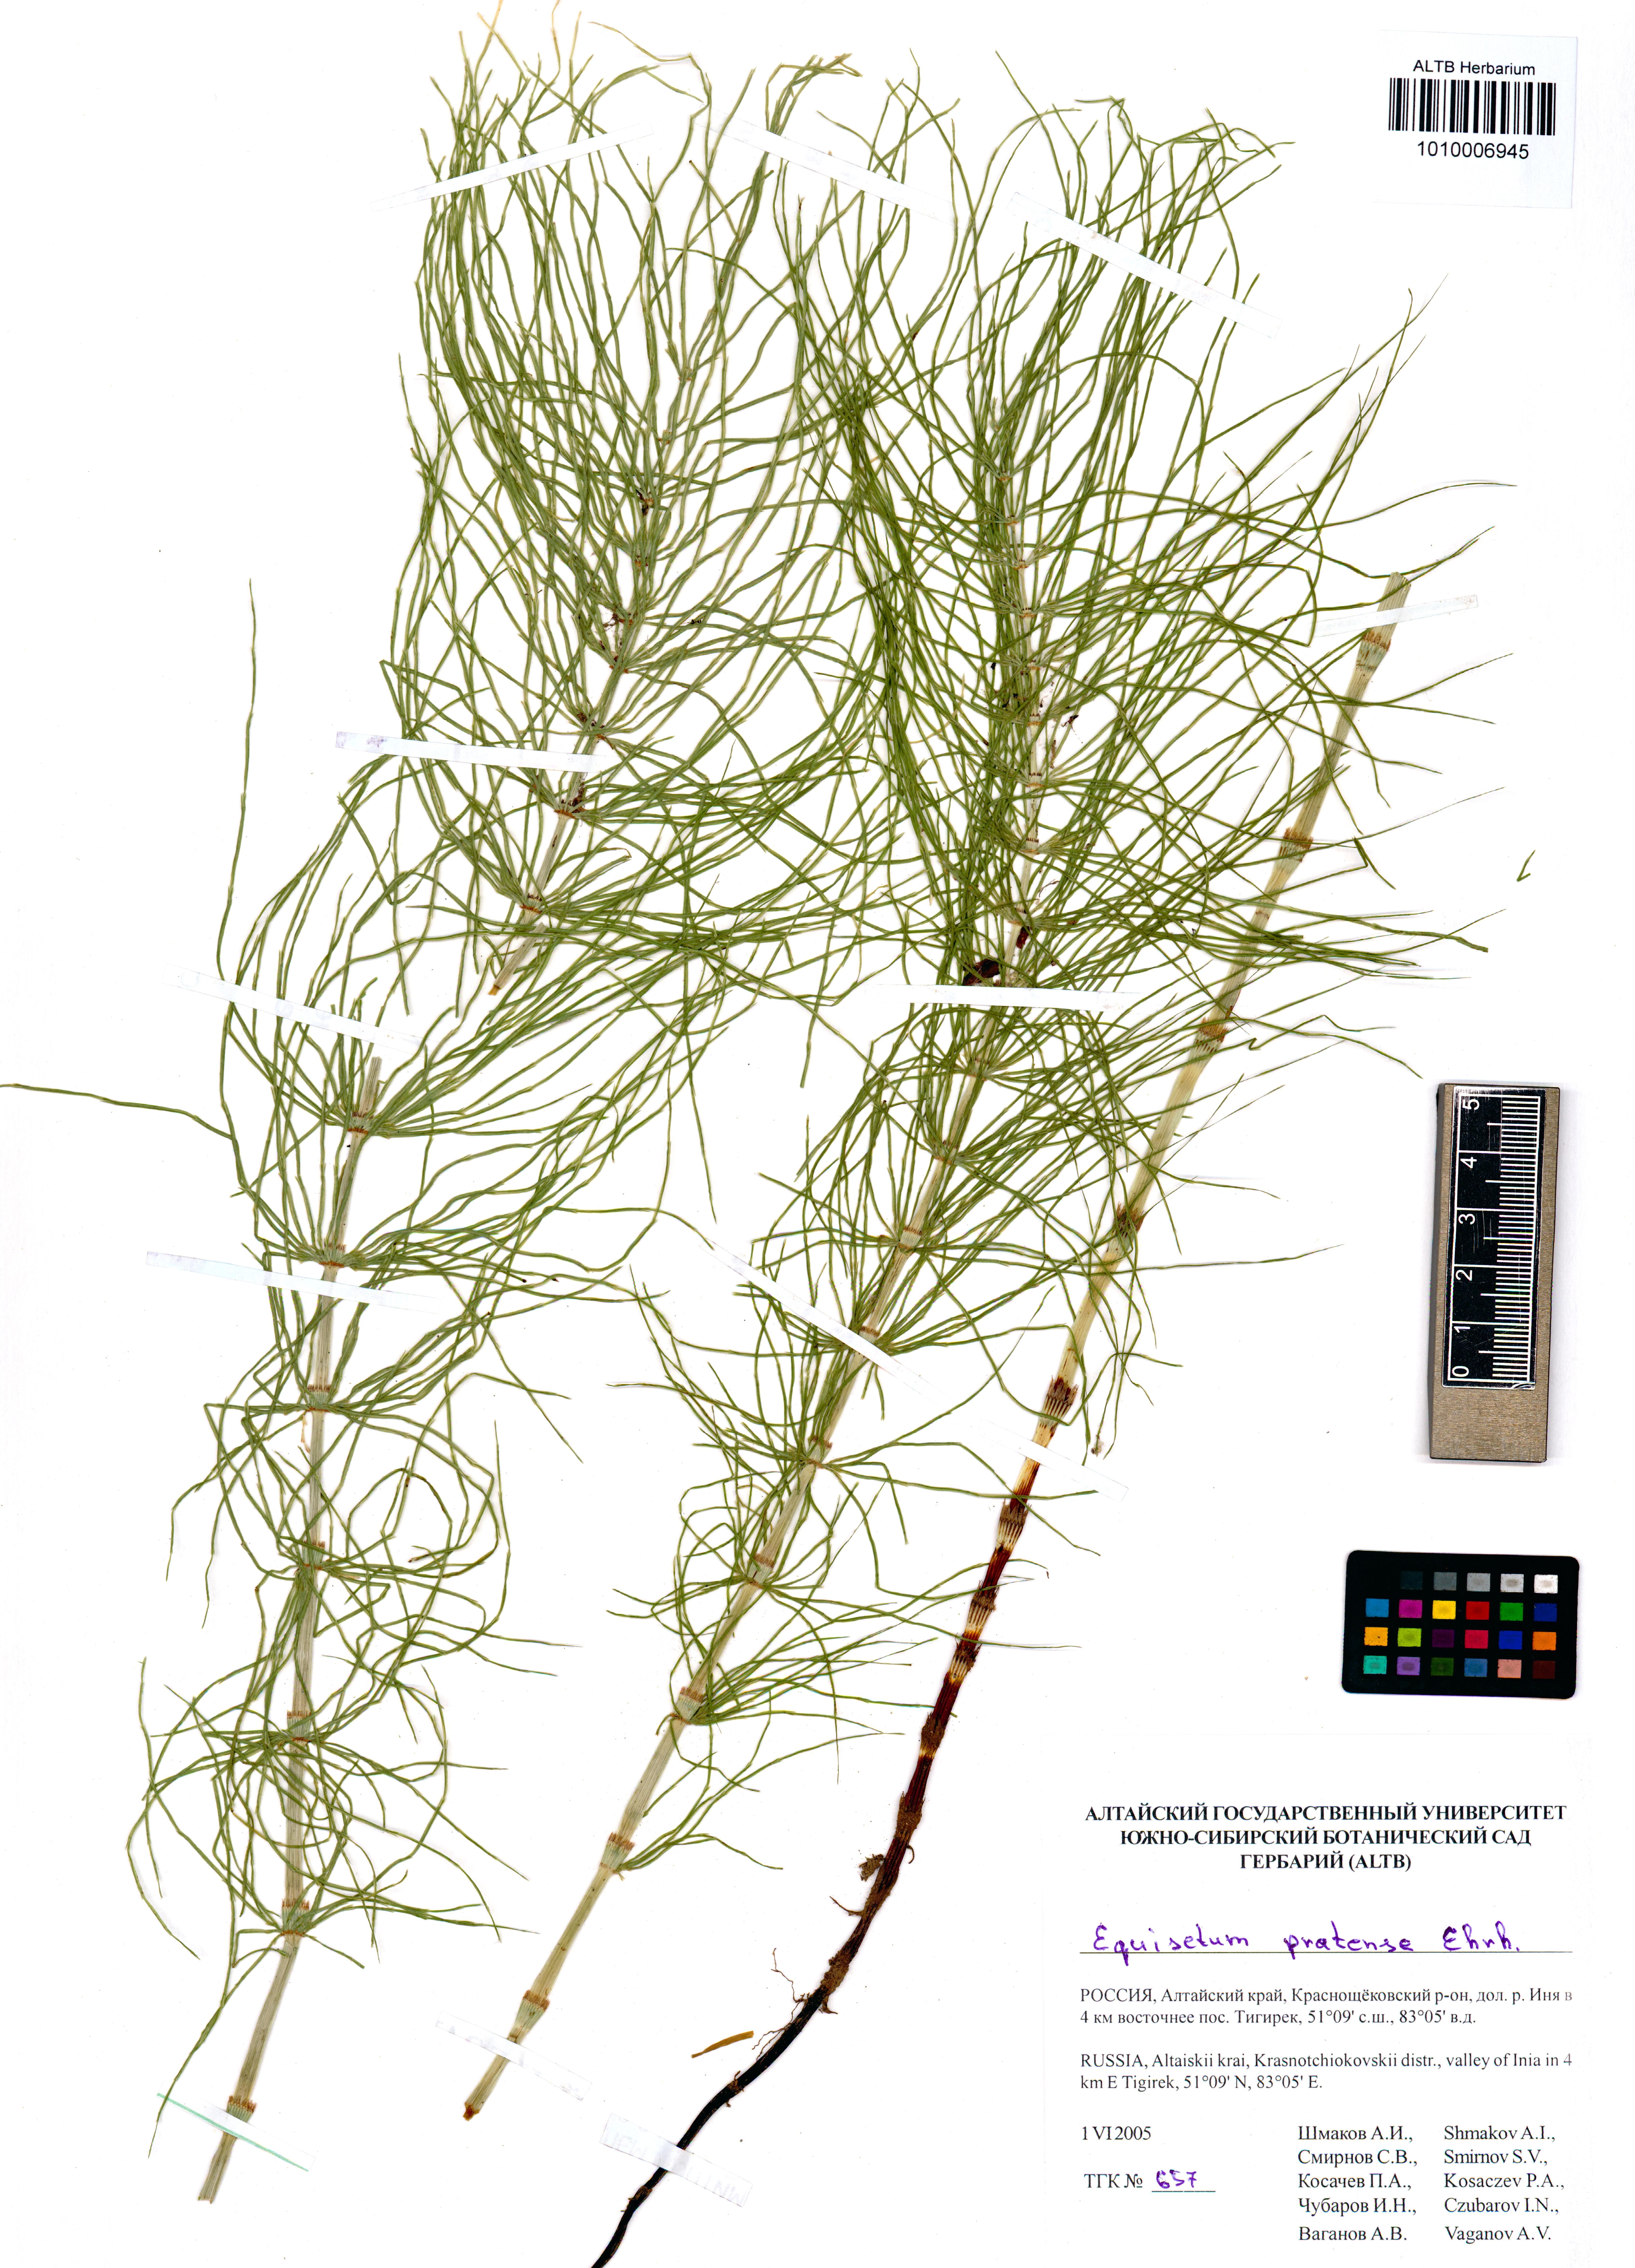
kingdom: Plantae
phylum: Tracheophyta
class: Polypodiopsida
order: Equisetales
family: Equisetaceae
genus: Equisetum
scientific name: Equisetum pratense
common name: Meadow horsetail
